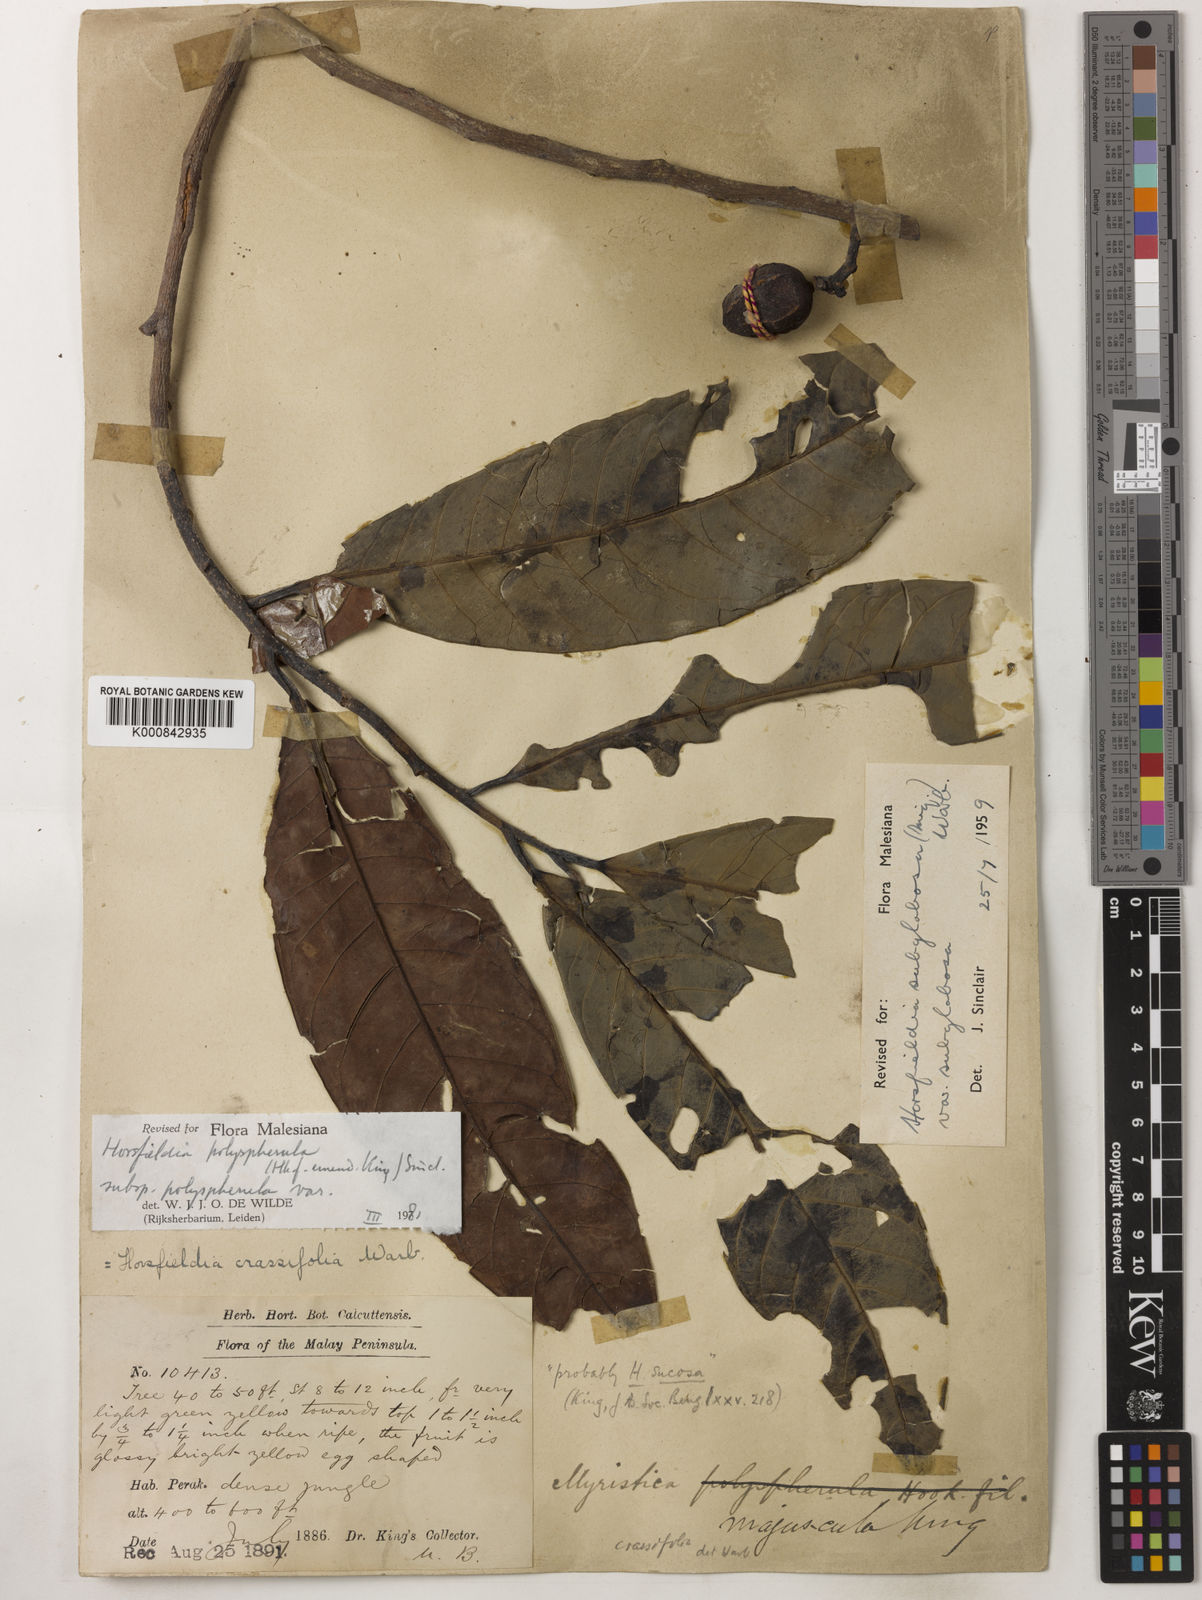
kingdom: Plantae
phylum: Tracheophyta
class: Magnoliopsida
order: Magnoliales
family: Myristicaceae
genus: Horsfieldia
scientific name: Horsfieldia
